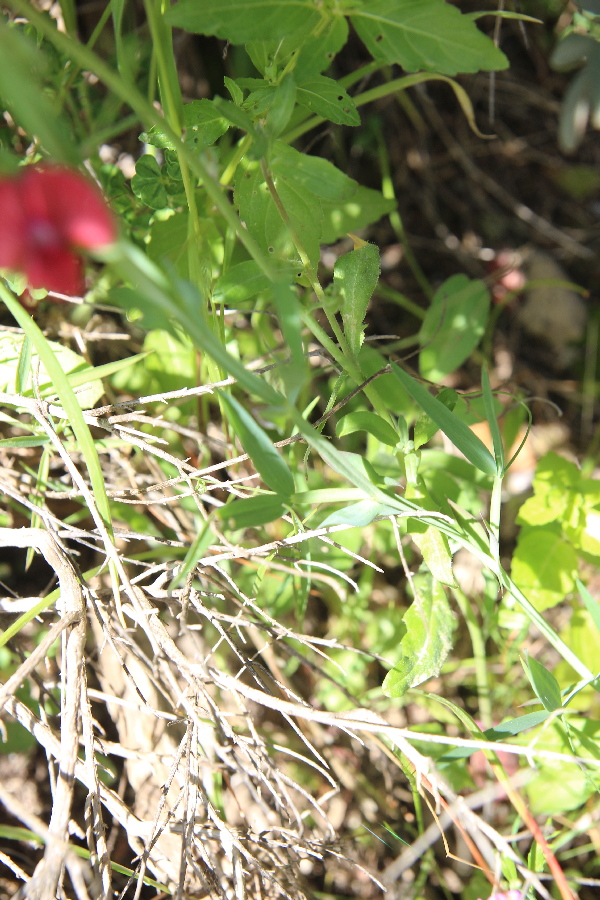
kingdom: Plantae
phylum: Tracheophyta
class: Magnoliopsida
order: Fabales
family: Fabaceae
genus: Lathyrus
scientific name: Lathyrus cicera
